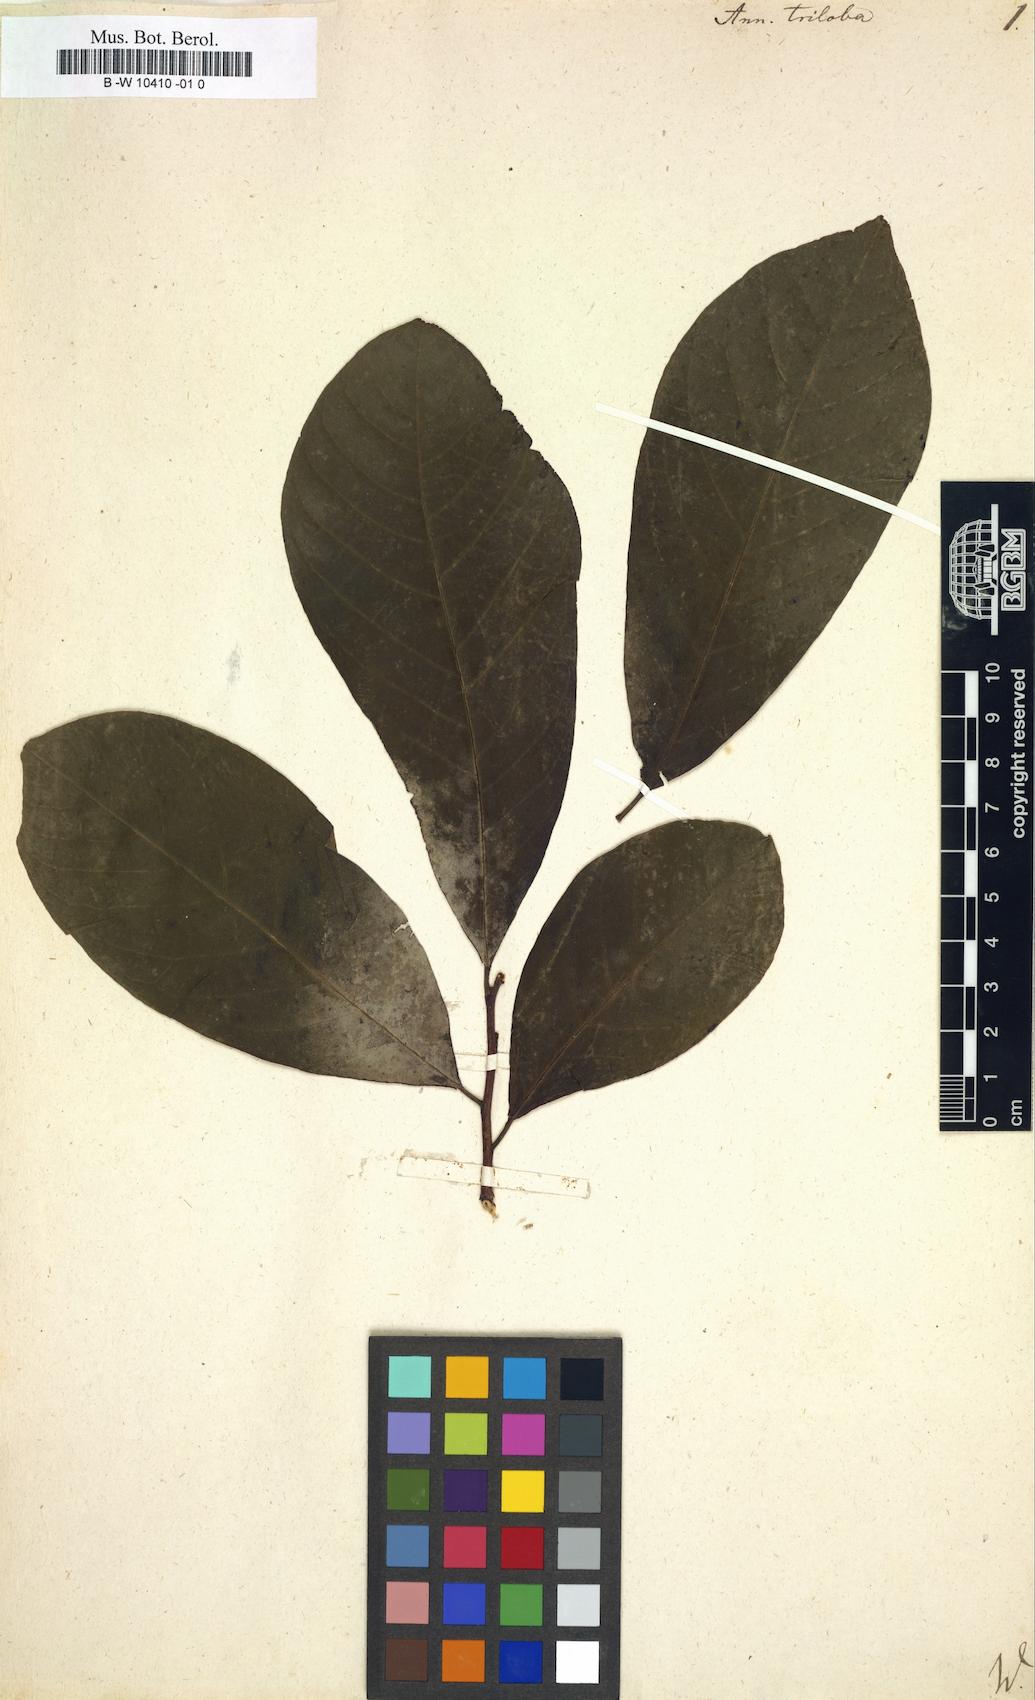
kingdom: Plantae
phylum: Tracheophyta
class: Magnoliopsida
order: Magnoliales
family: Annonaceae
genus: Asimina
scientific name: Asimina triloba
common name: Dog-banana
